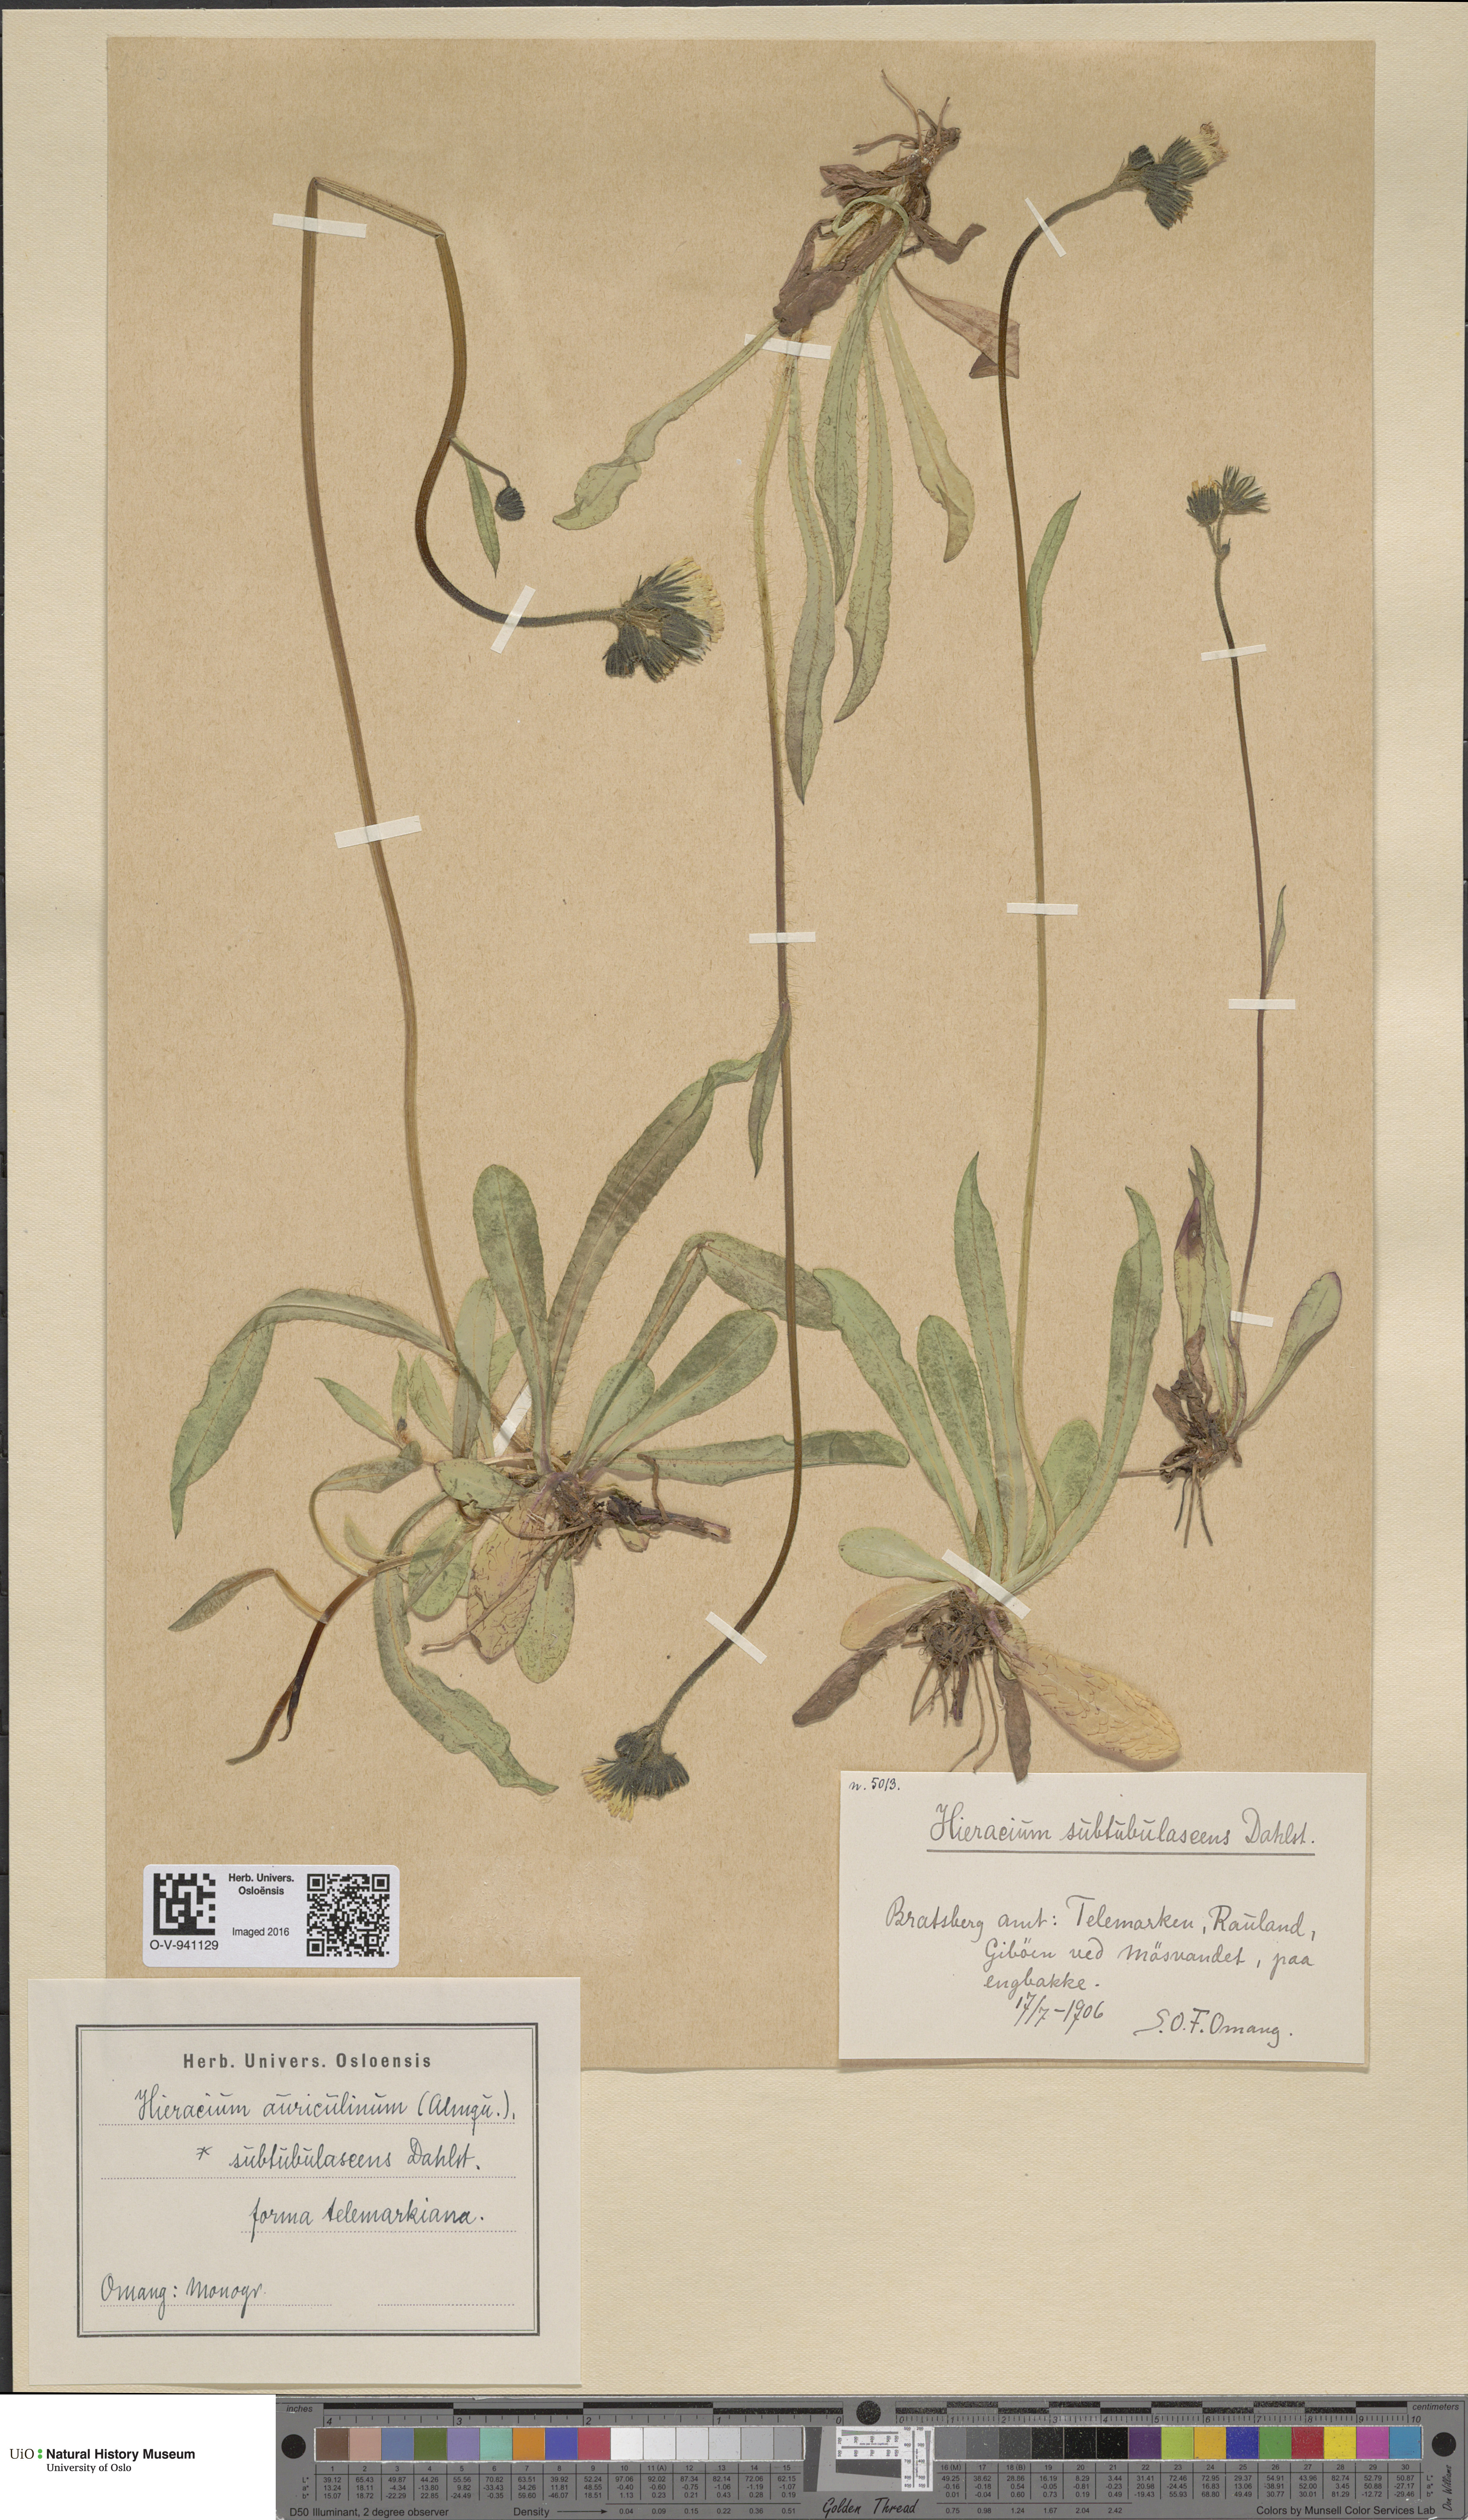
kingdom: Plantae
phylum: Tracheophyta
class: Magnoliopsida
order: Asterales
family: Asteraceae
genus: Pilosella
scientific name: Pilosella dubia
